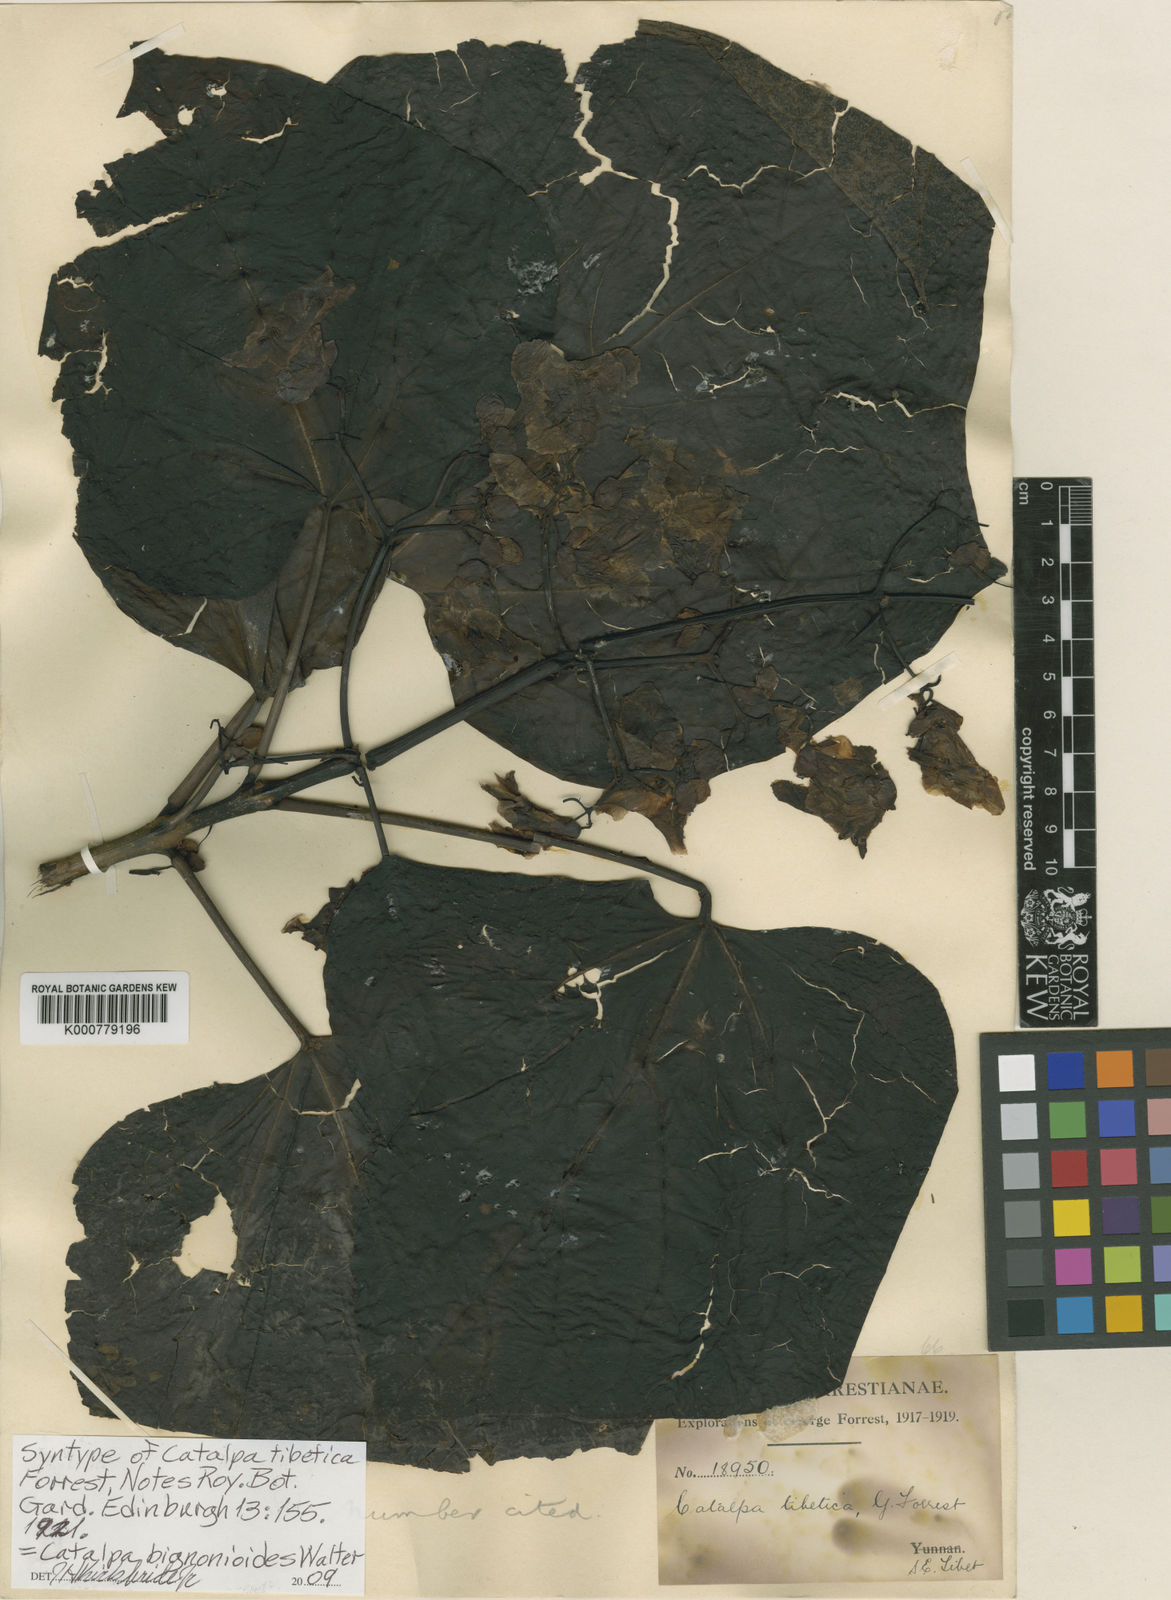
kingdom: Plantae
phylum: Tracheophyta
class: Magnoliopsida
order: Lamiales
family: Bignoniaceae
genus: Catalpa
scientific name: Catalpa bignonioides
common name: Southern catalpa
